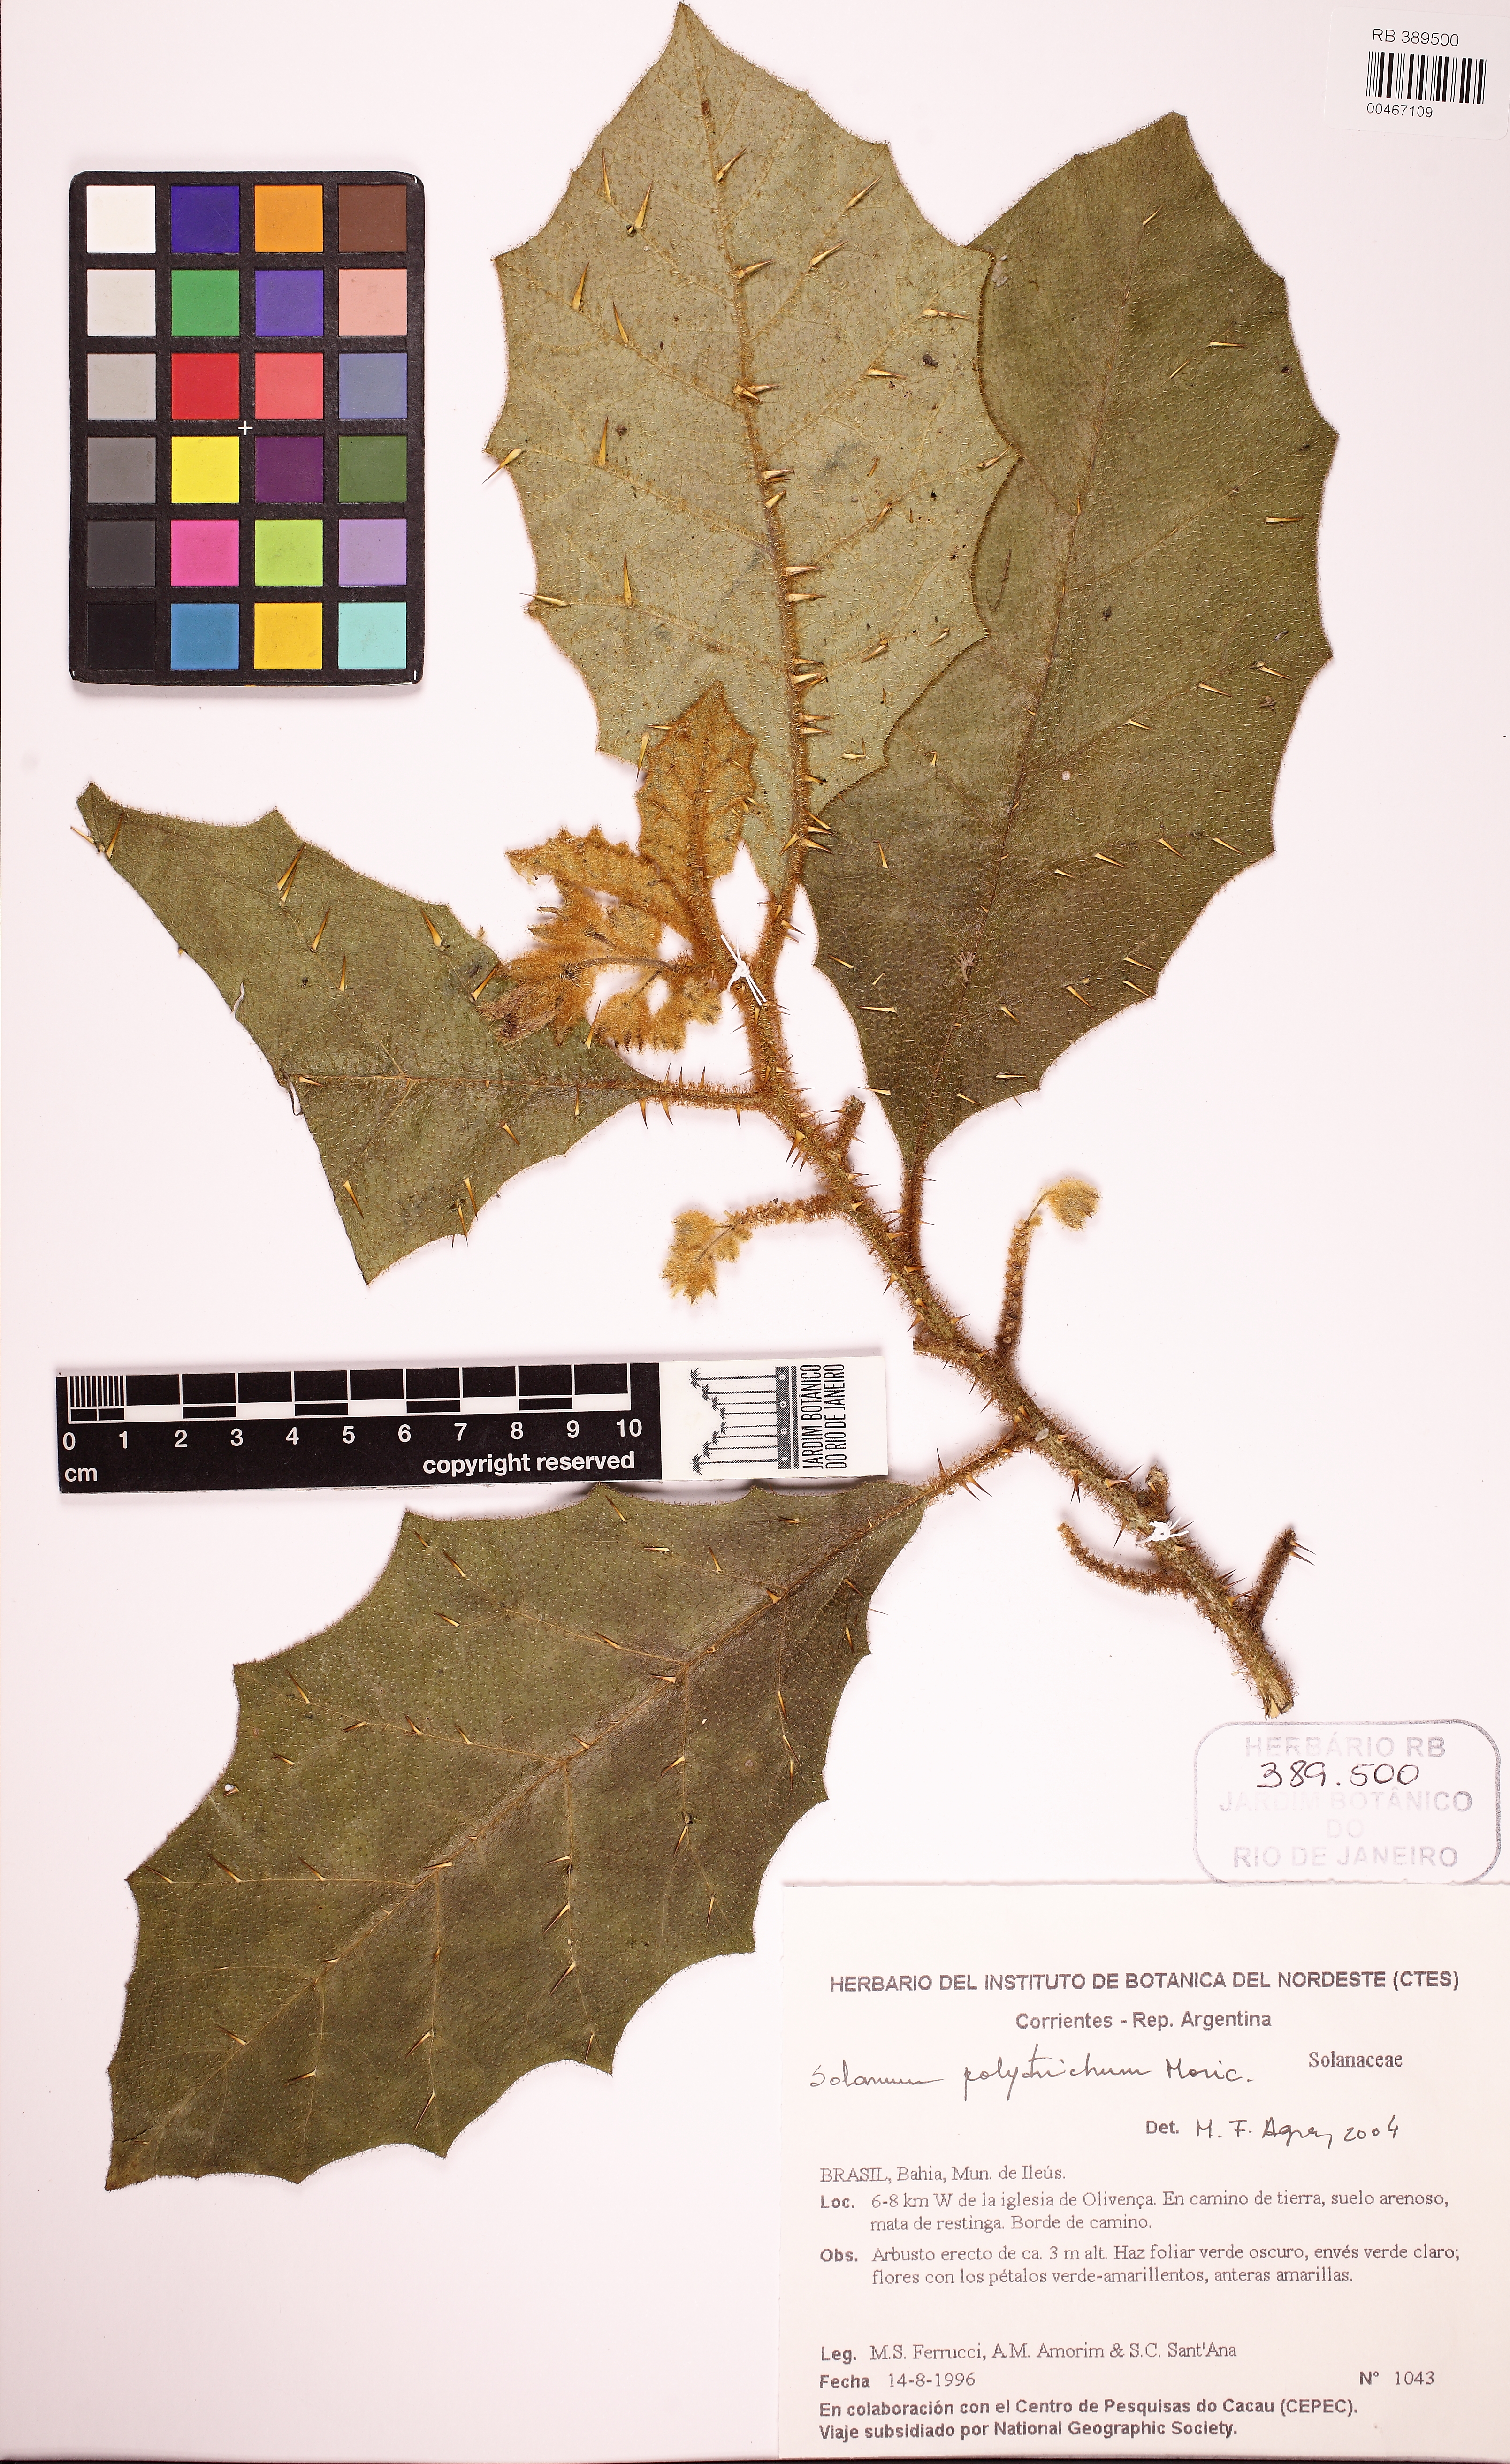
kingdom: Plantae
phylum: Tracheophyta
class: Magnoliopsida
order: Solanales
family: Solanaceae
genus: Solanum
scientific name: Solanum polytrichum
